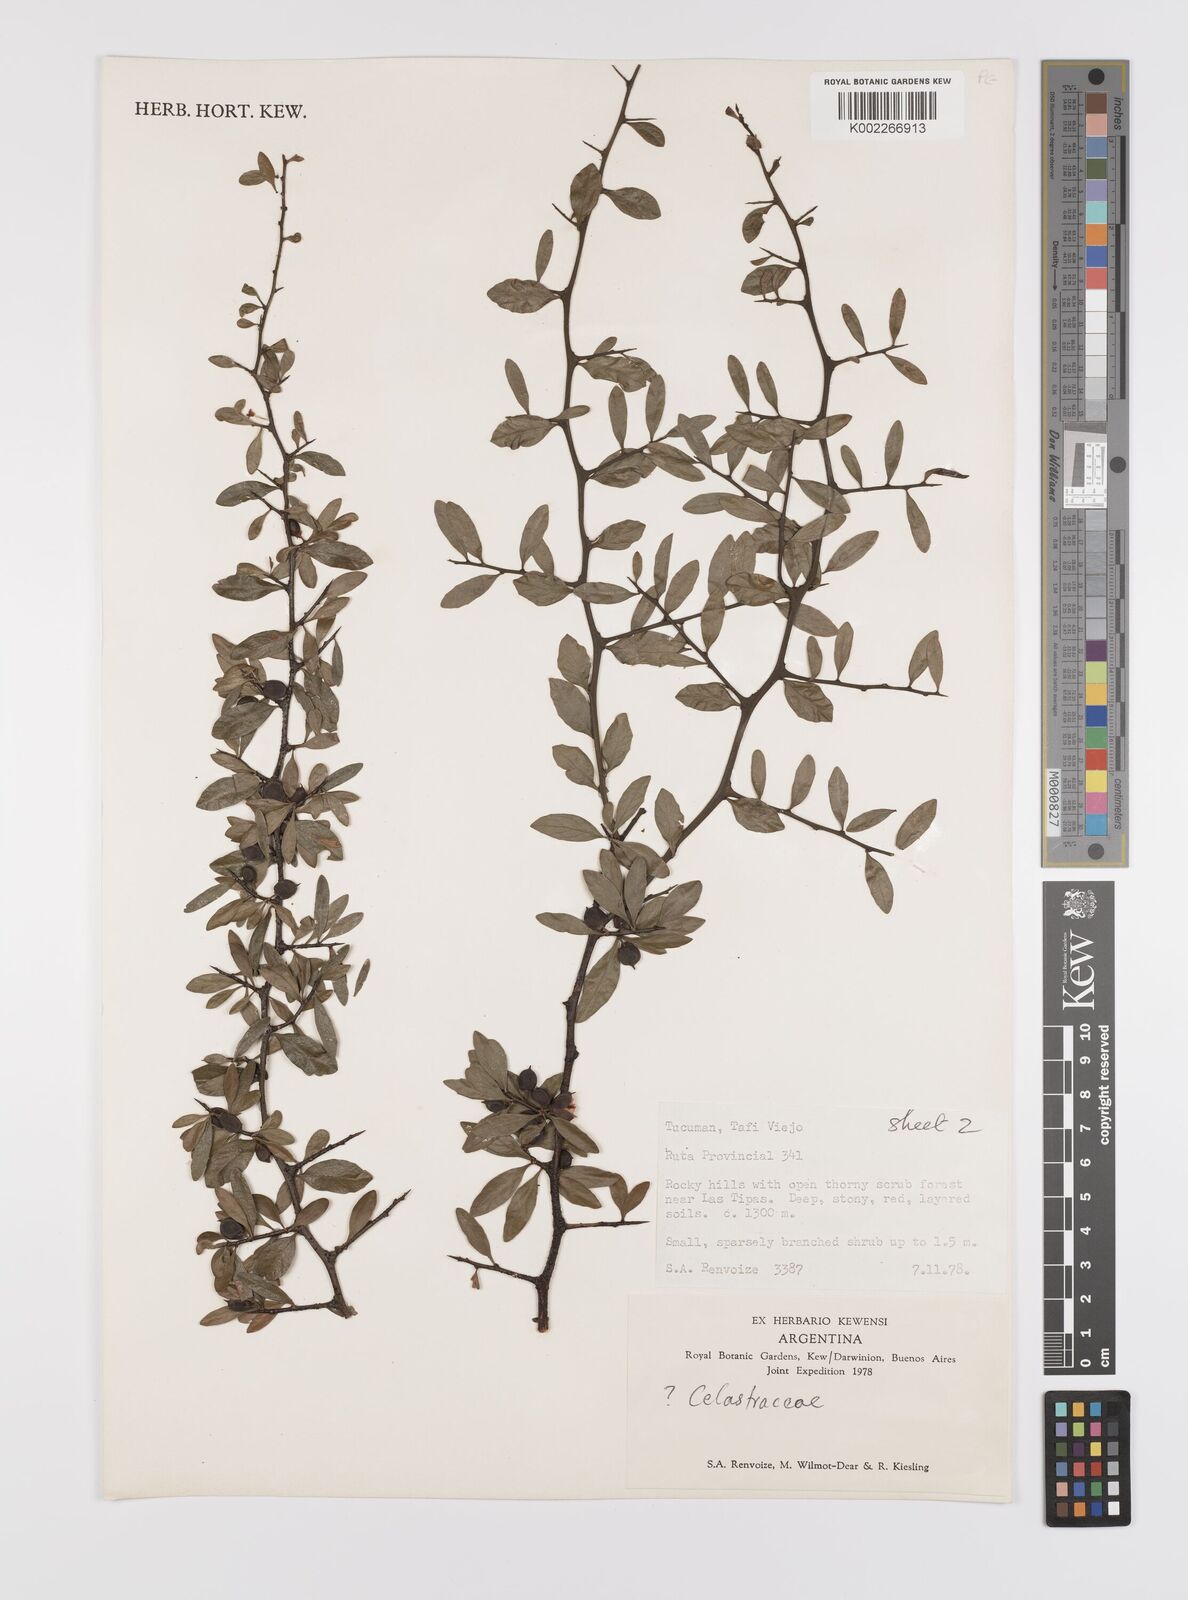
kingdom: Plantae
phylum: Tracheophyta
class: Magnoliopsida
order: Celastrales
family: Celastraceae
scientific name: Celastraceae
